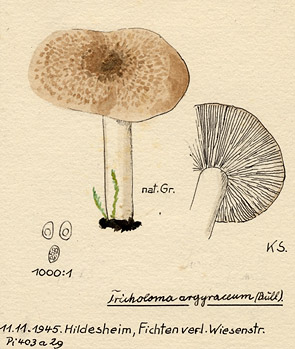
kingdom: Fungi
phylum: Basidiomycota
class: Agaricomycetes
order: Agaricales
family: Tricholomataceae
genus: Tricholoma
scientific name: Tricholoma argyraceum
